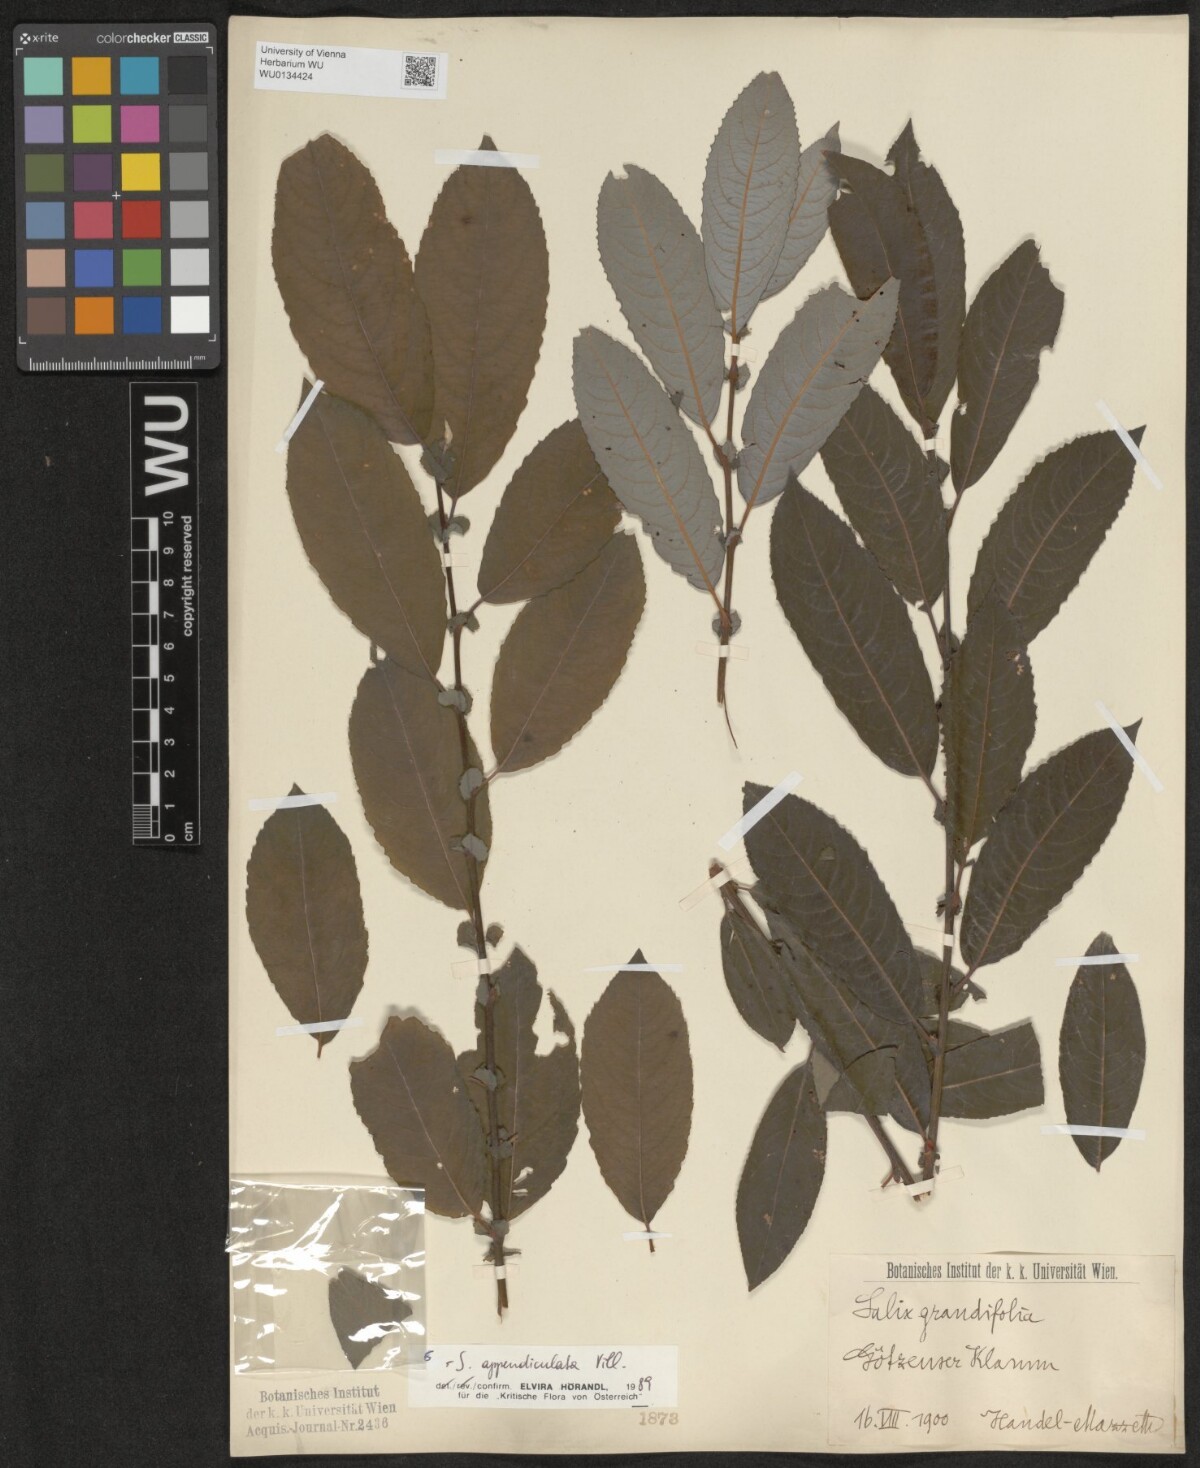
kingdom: Plantae
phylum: Tracheophyta
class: Magnoliopsida
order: Malpighiales
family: Salicaceae
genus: Salix
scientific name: Salix appendiculata
